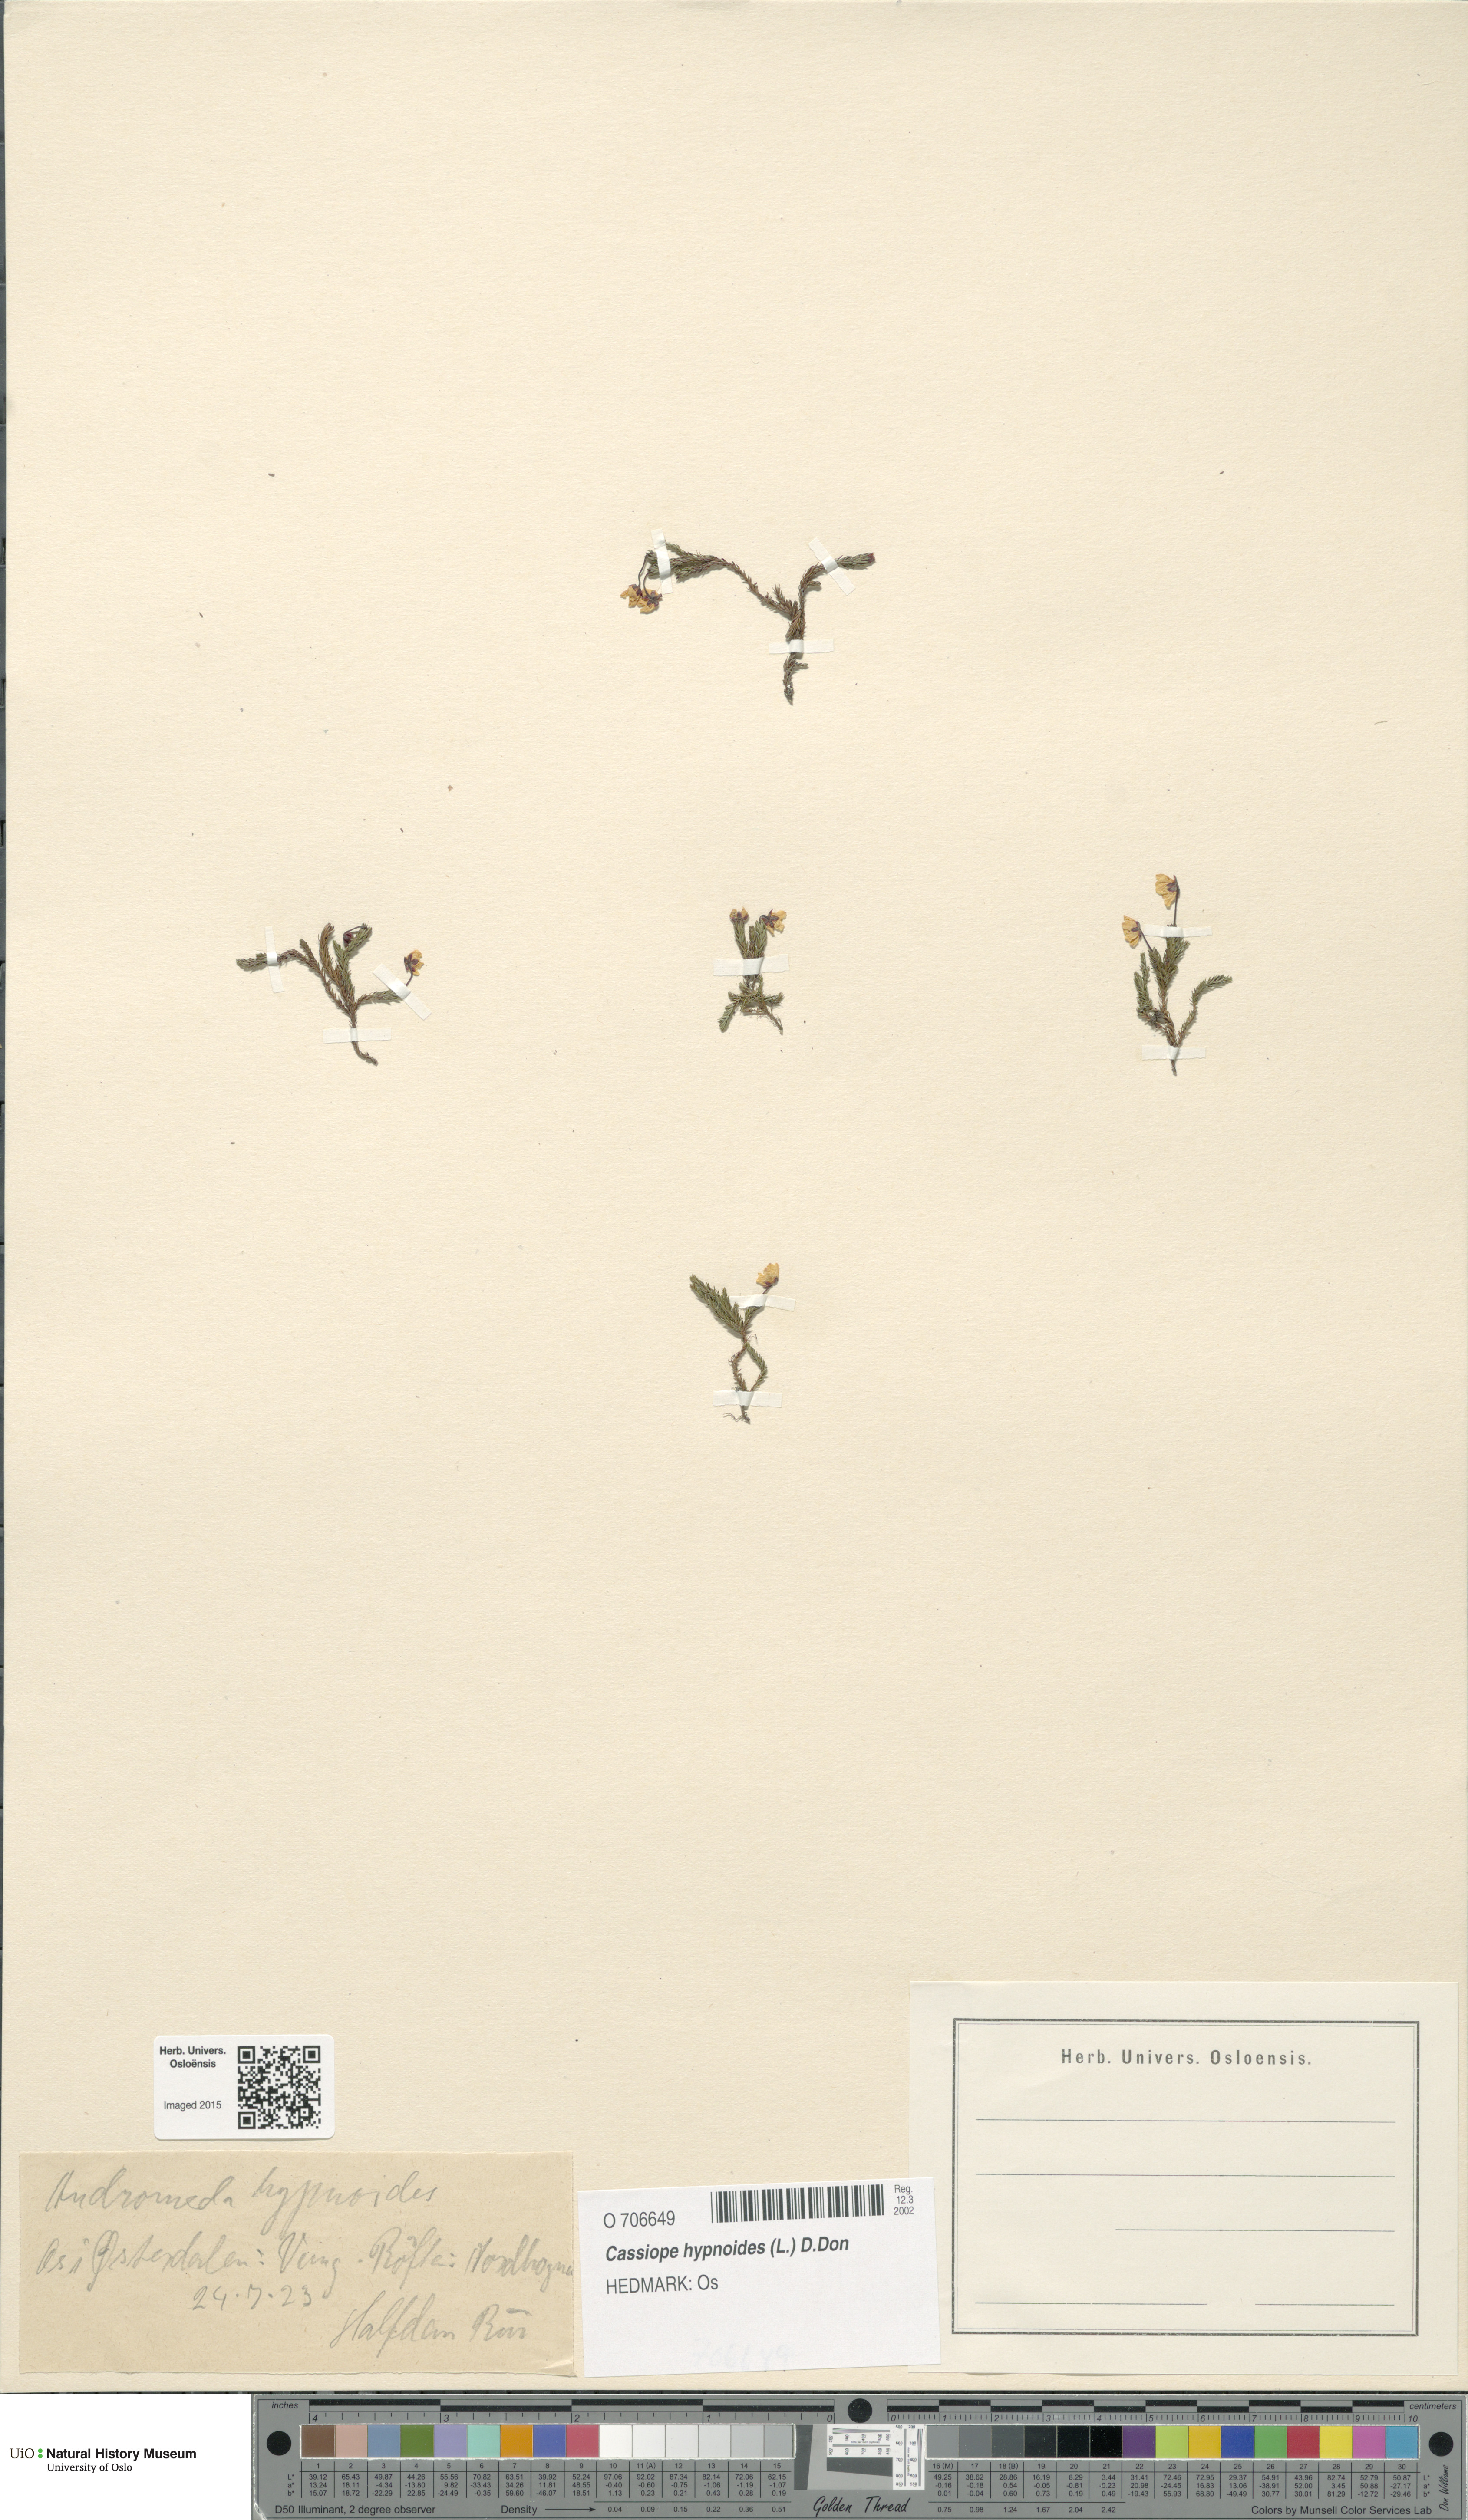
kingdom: Plantae
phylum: Tracheophyta
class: Magnoliopsida
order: Ericales
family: Ericaceae
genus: Harrimanella
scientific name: Harrimanella hypnoides
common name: Moss bell heather
